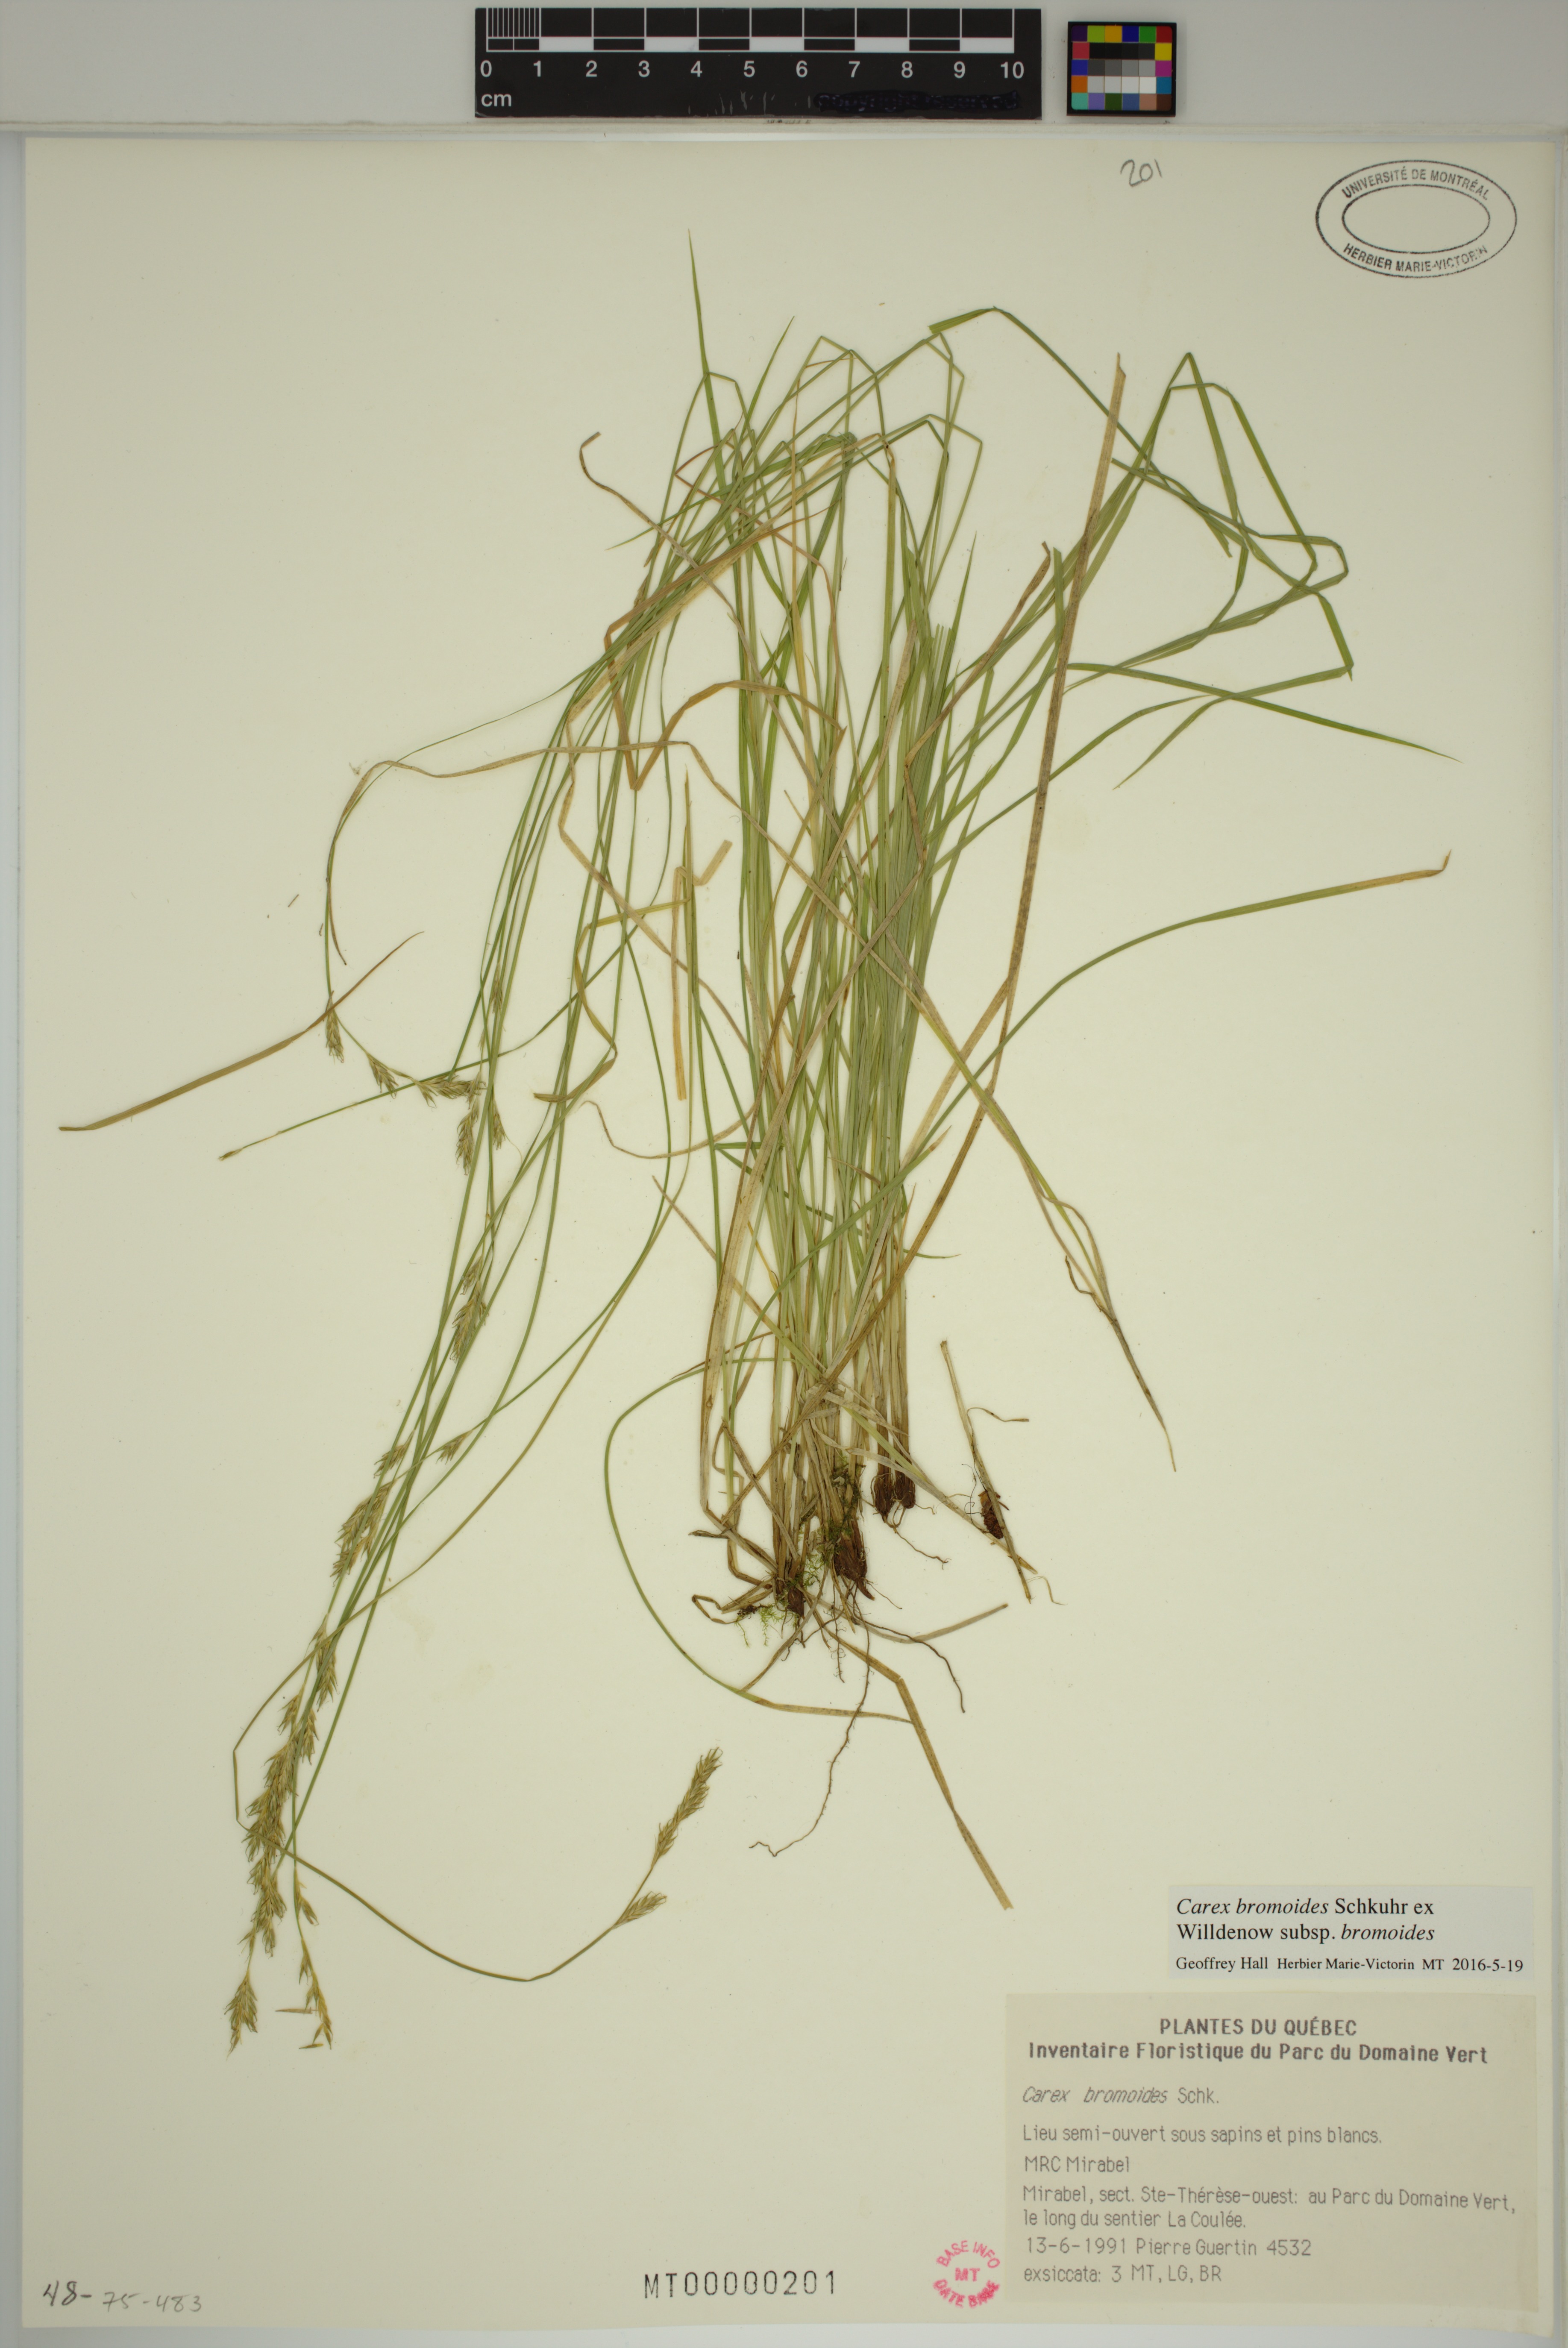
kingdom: Plantae
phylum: Tracheophyta
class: Liliopsida
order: Poales
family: Cyperaceae
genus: Carex
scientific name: Carex bromoides
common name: Brome hummock sedge
